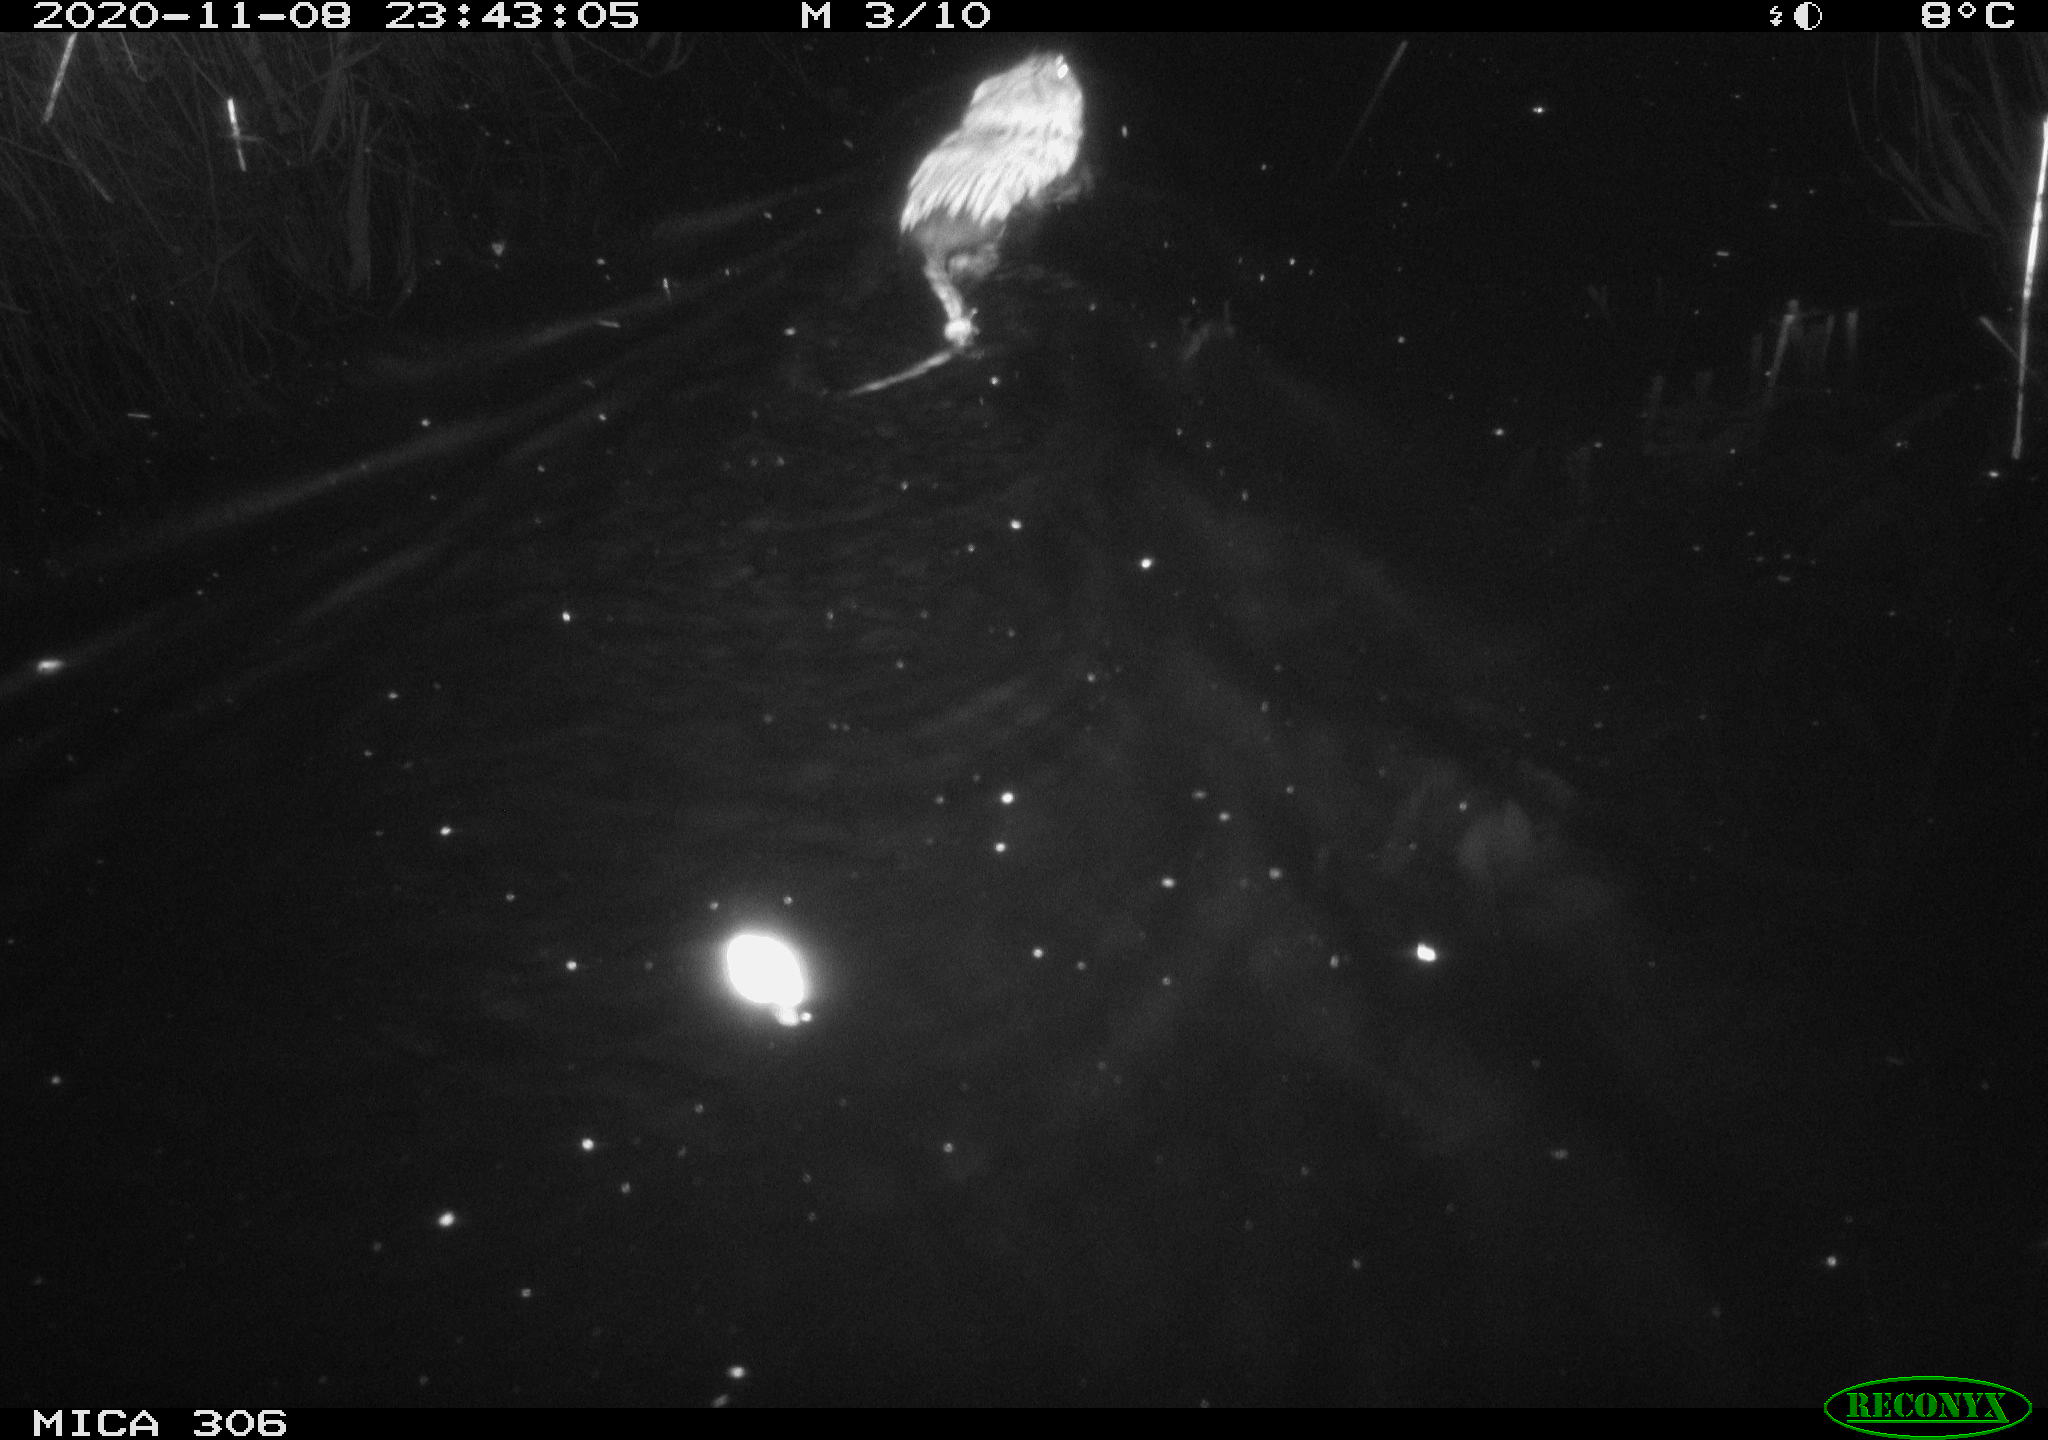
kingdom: Animalia
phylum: Chordata
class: Mammalia
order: Rodentia
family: Cricetidae
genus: Ondatra
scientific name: Ondatra zibethicus
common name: Muskrat
